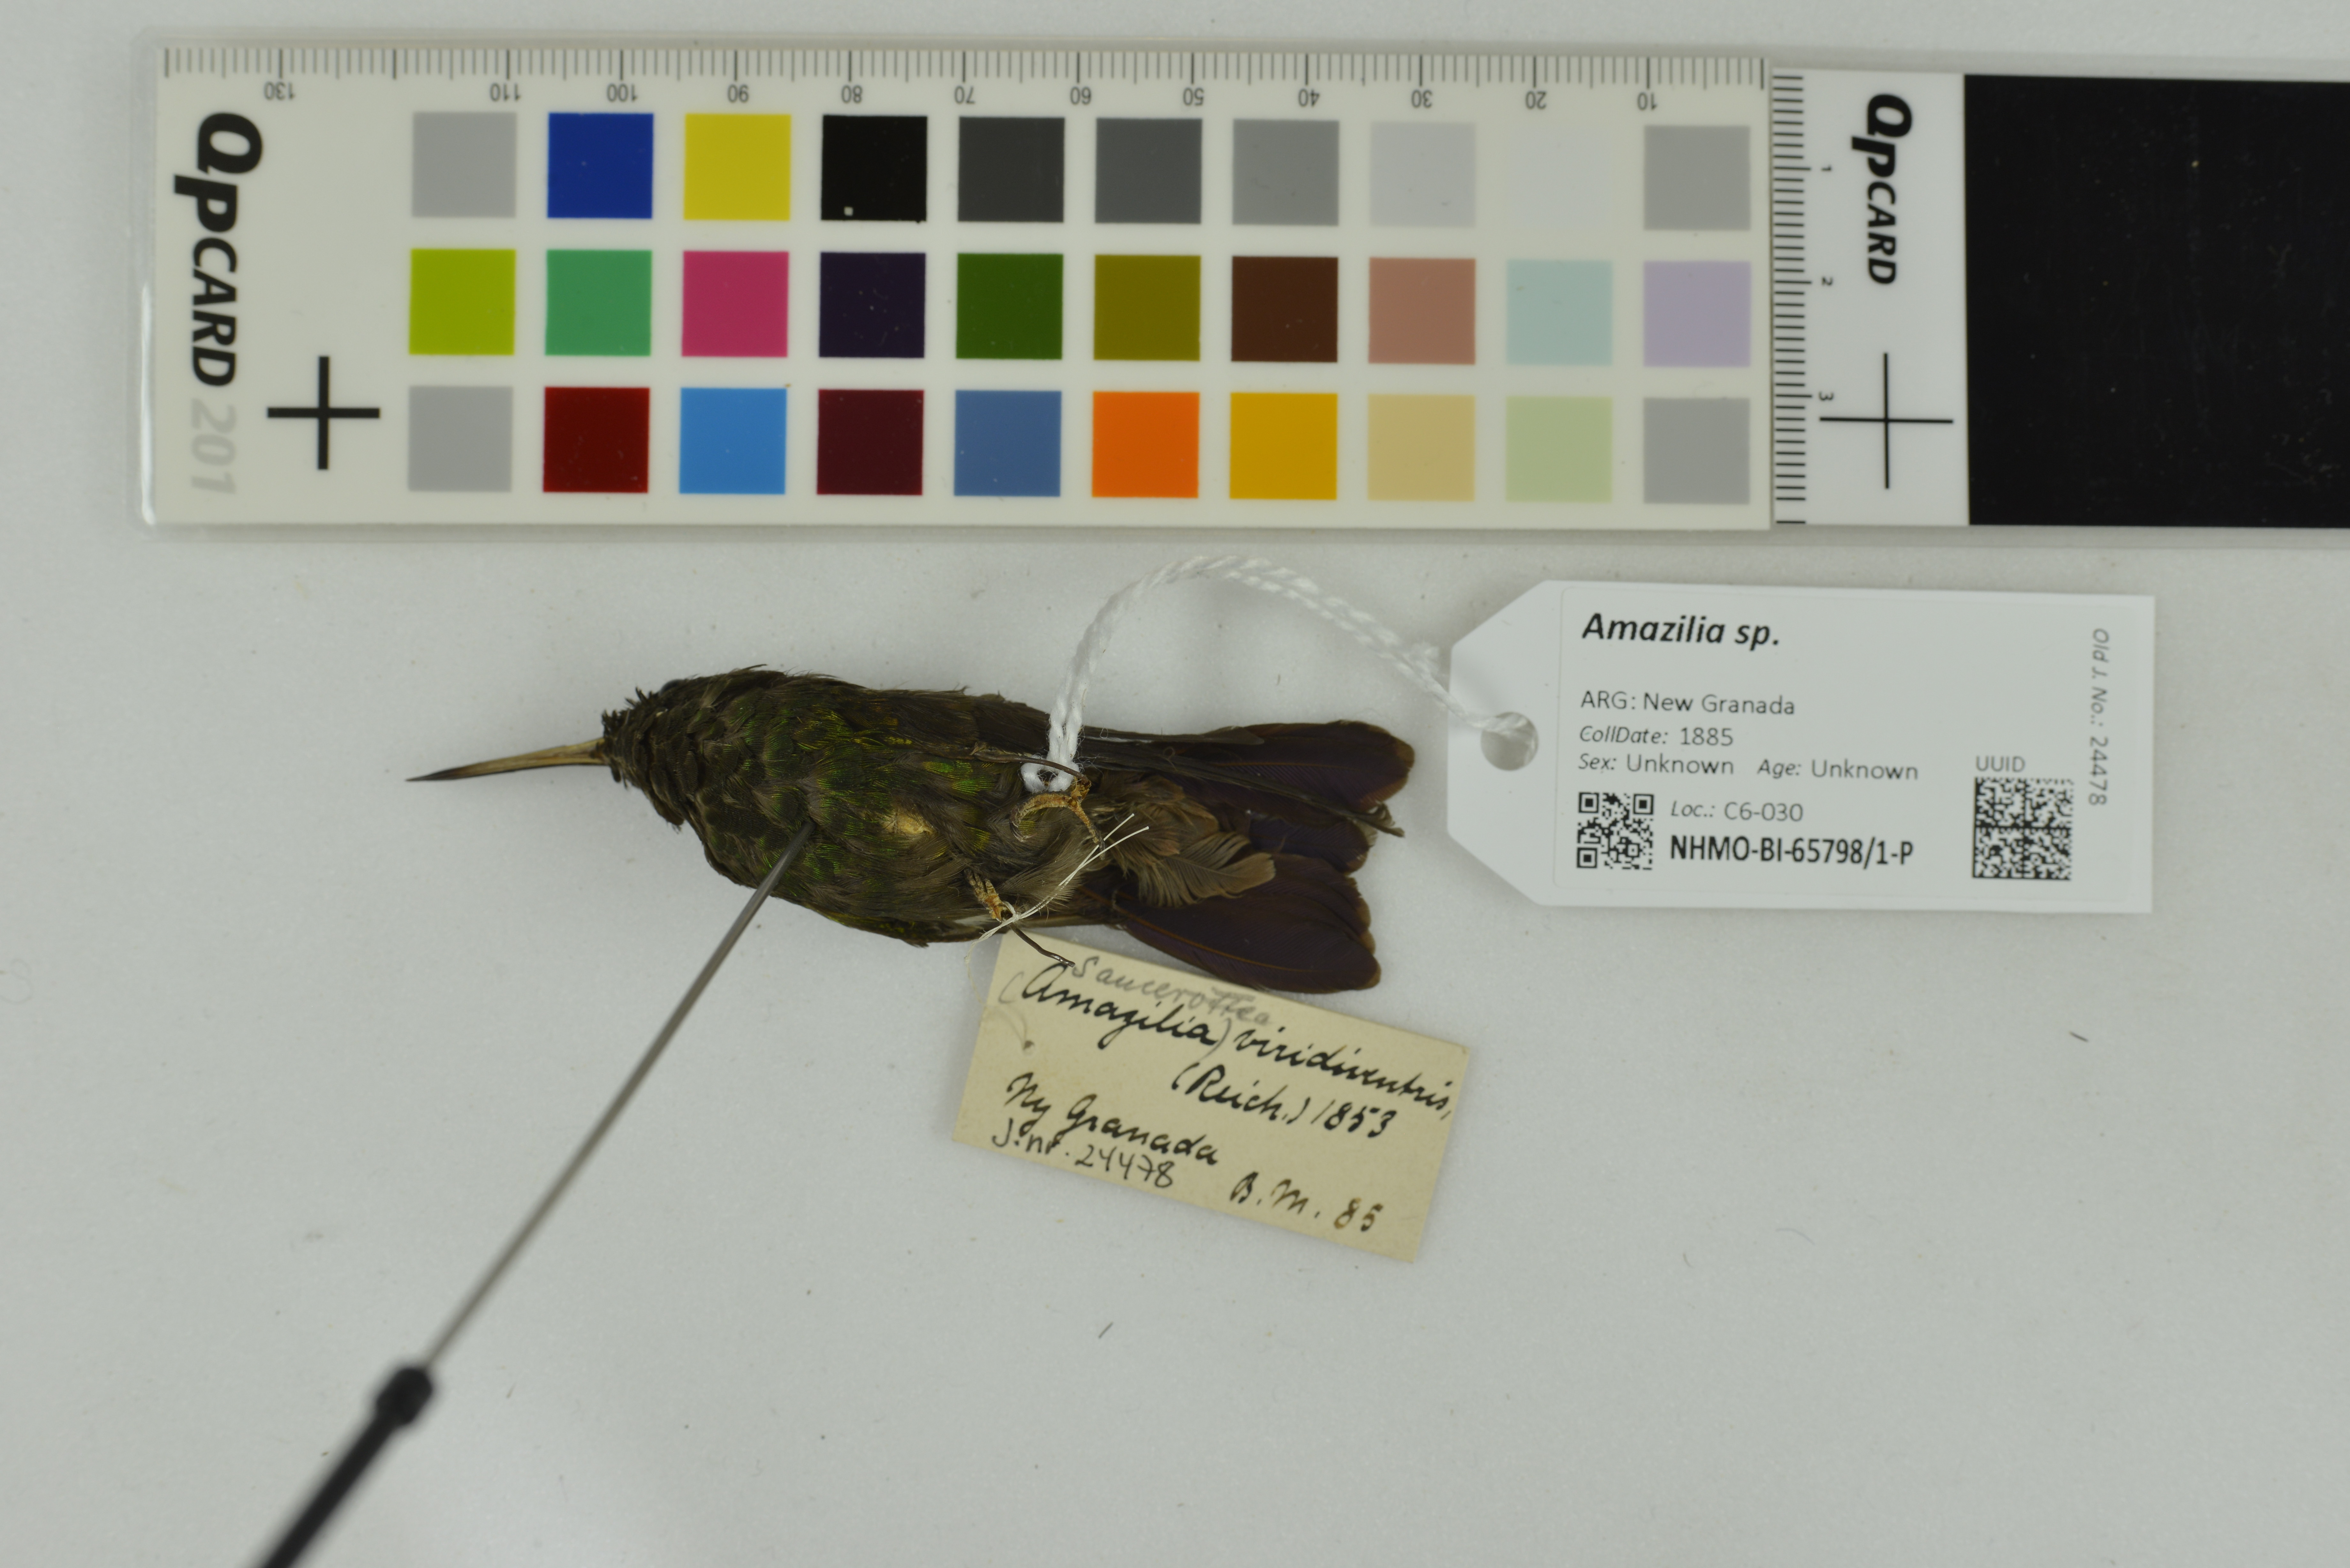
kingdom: Animalia
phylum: Chordata
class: Aves
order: Apodiformes
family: Trochilidae
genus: Amazilia
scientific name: Amazilia
